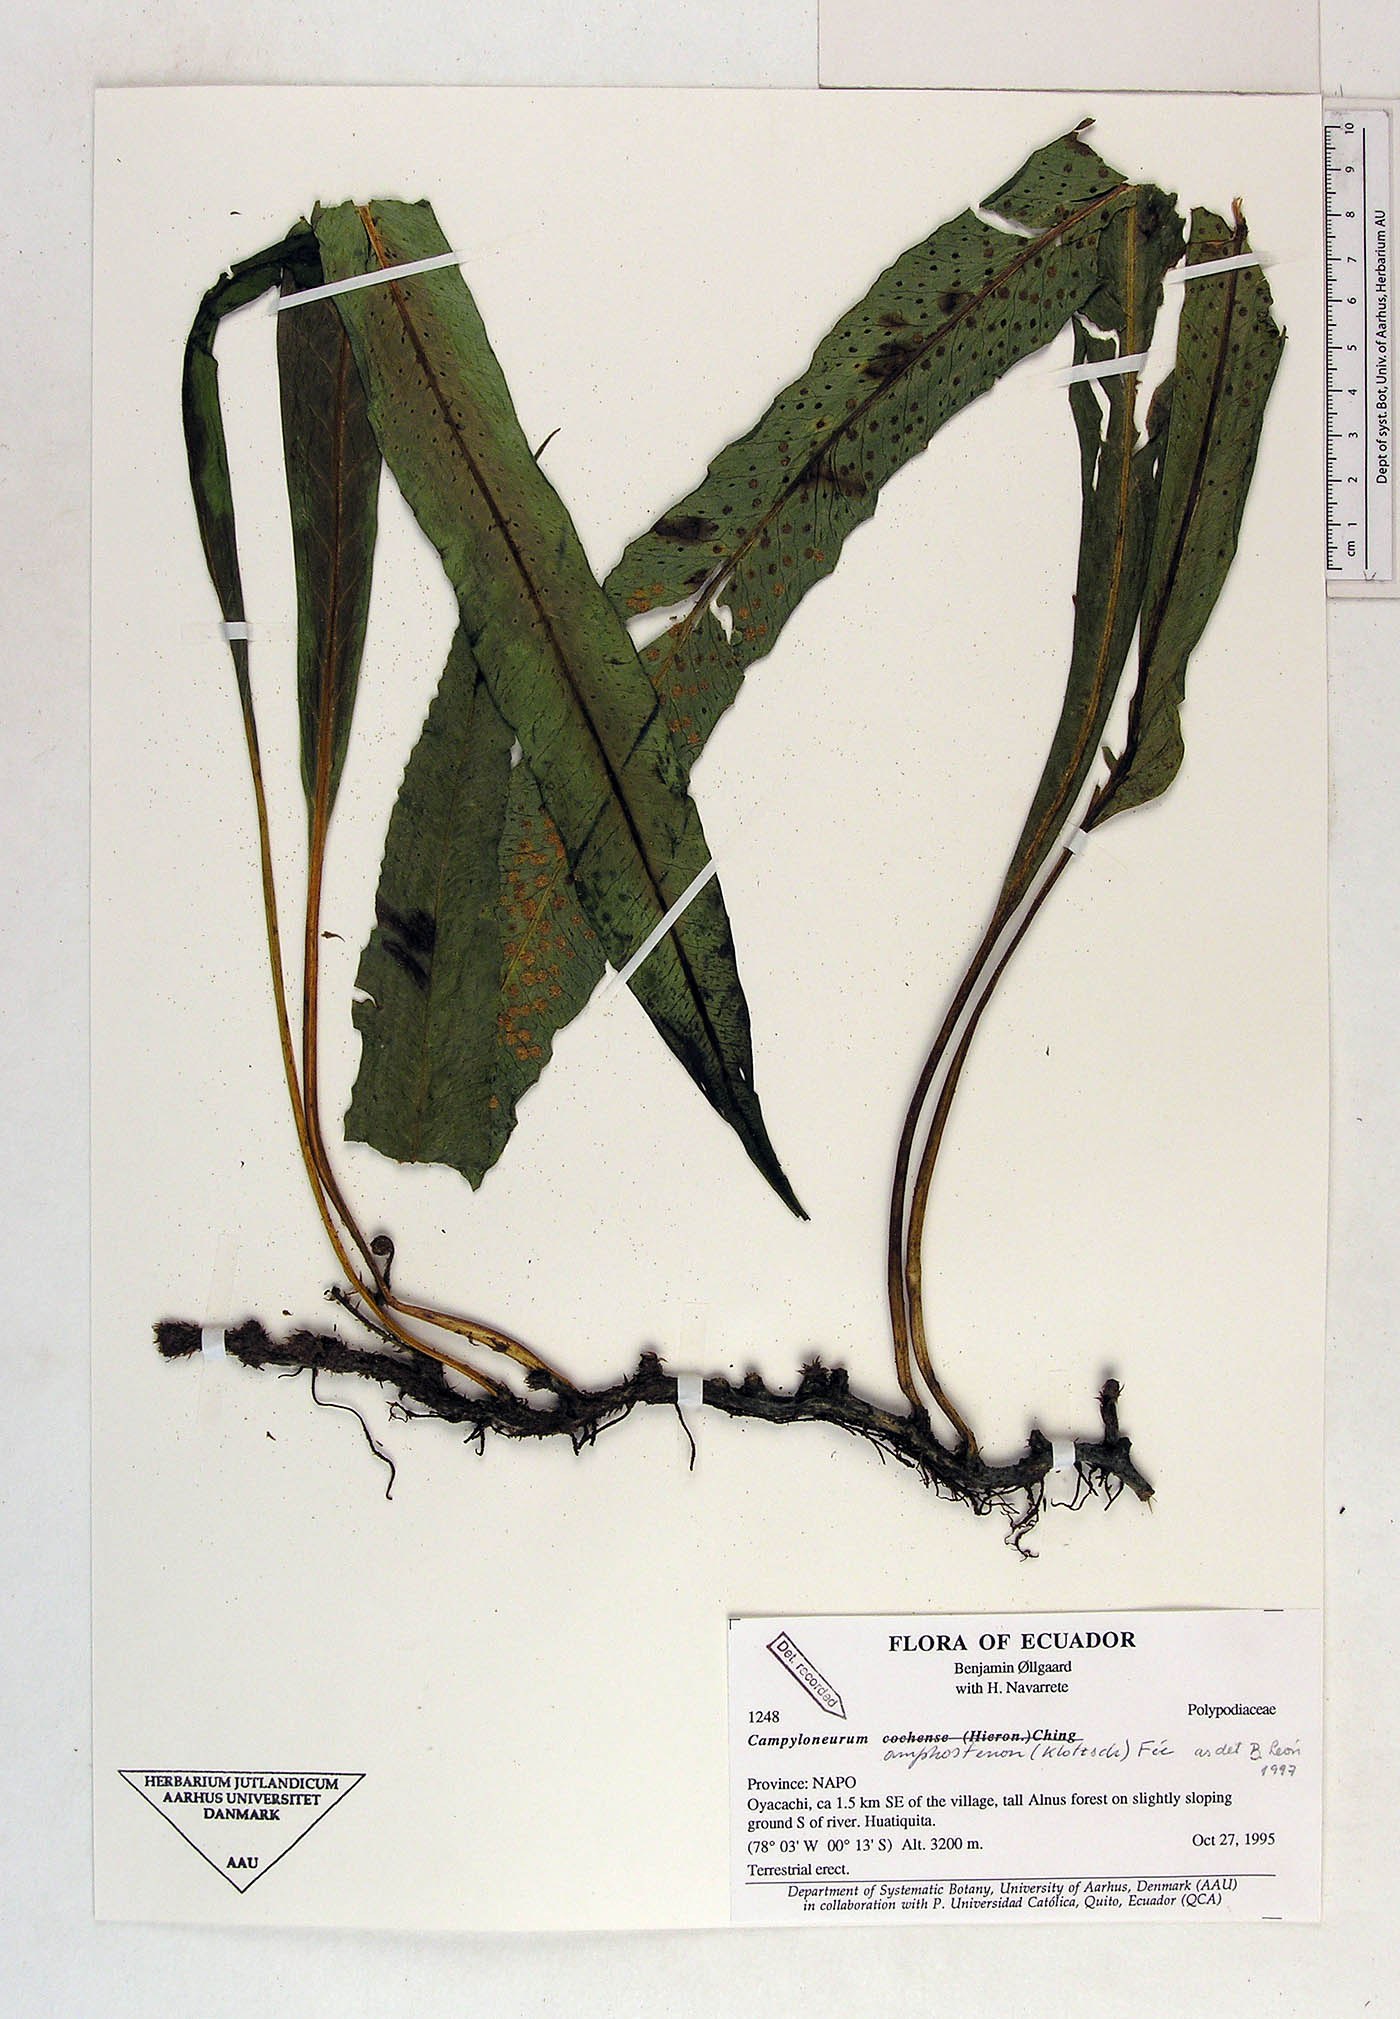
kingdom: Plantae
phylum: Tracheophyta
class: Polypodiopsida
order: Polypodiales
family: Polypodiaceae
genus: Campyloneurum
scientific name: Campyloneurum amphostenon
